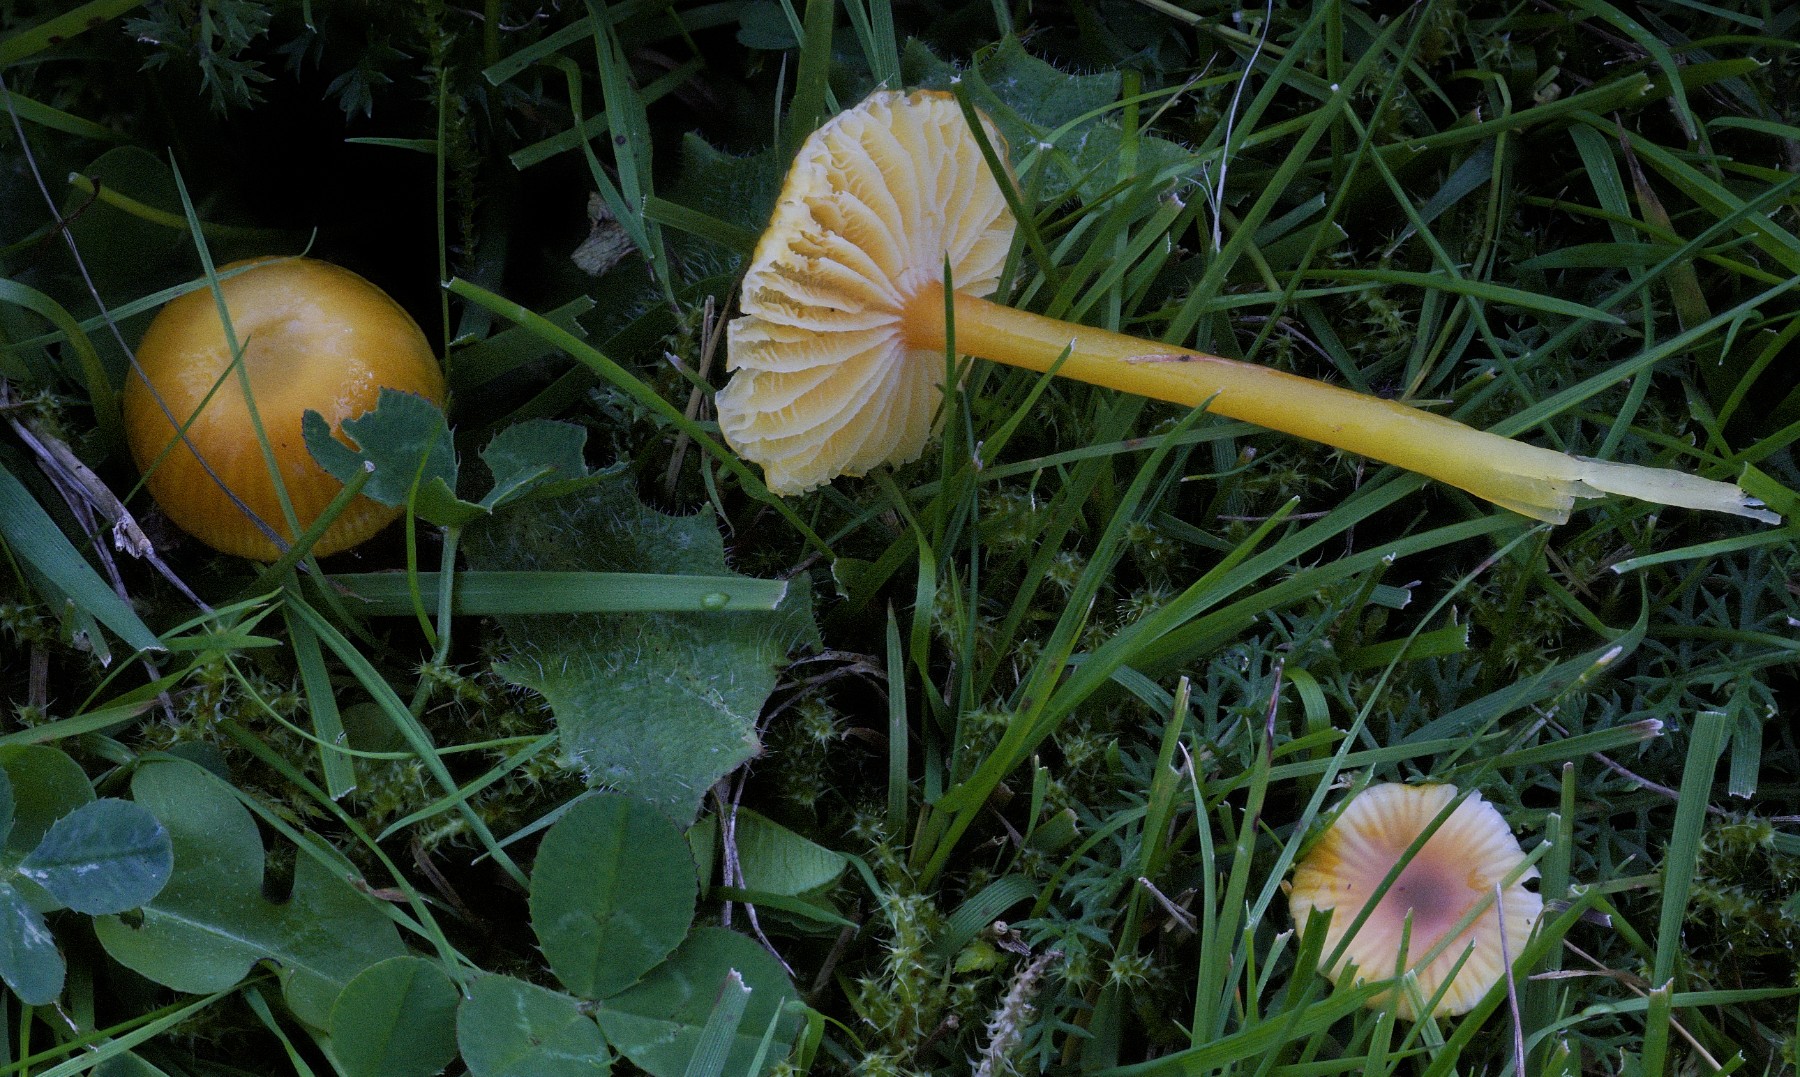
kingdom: Fungi
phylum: Basidiomycota
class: Agaricomycetes
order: Agaricales
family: Hygrophoraceae
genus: Hygrocybe
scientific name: Hygrocybe glutinipes
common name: slimstokket vokshat
